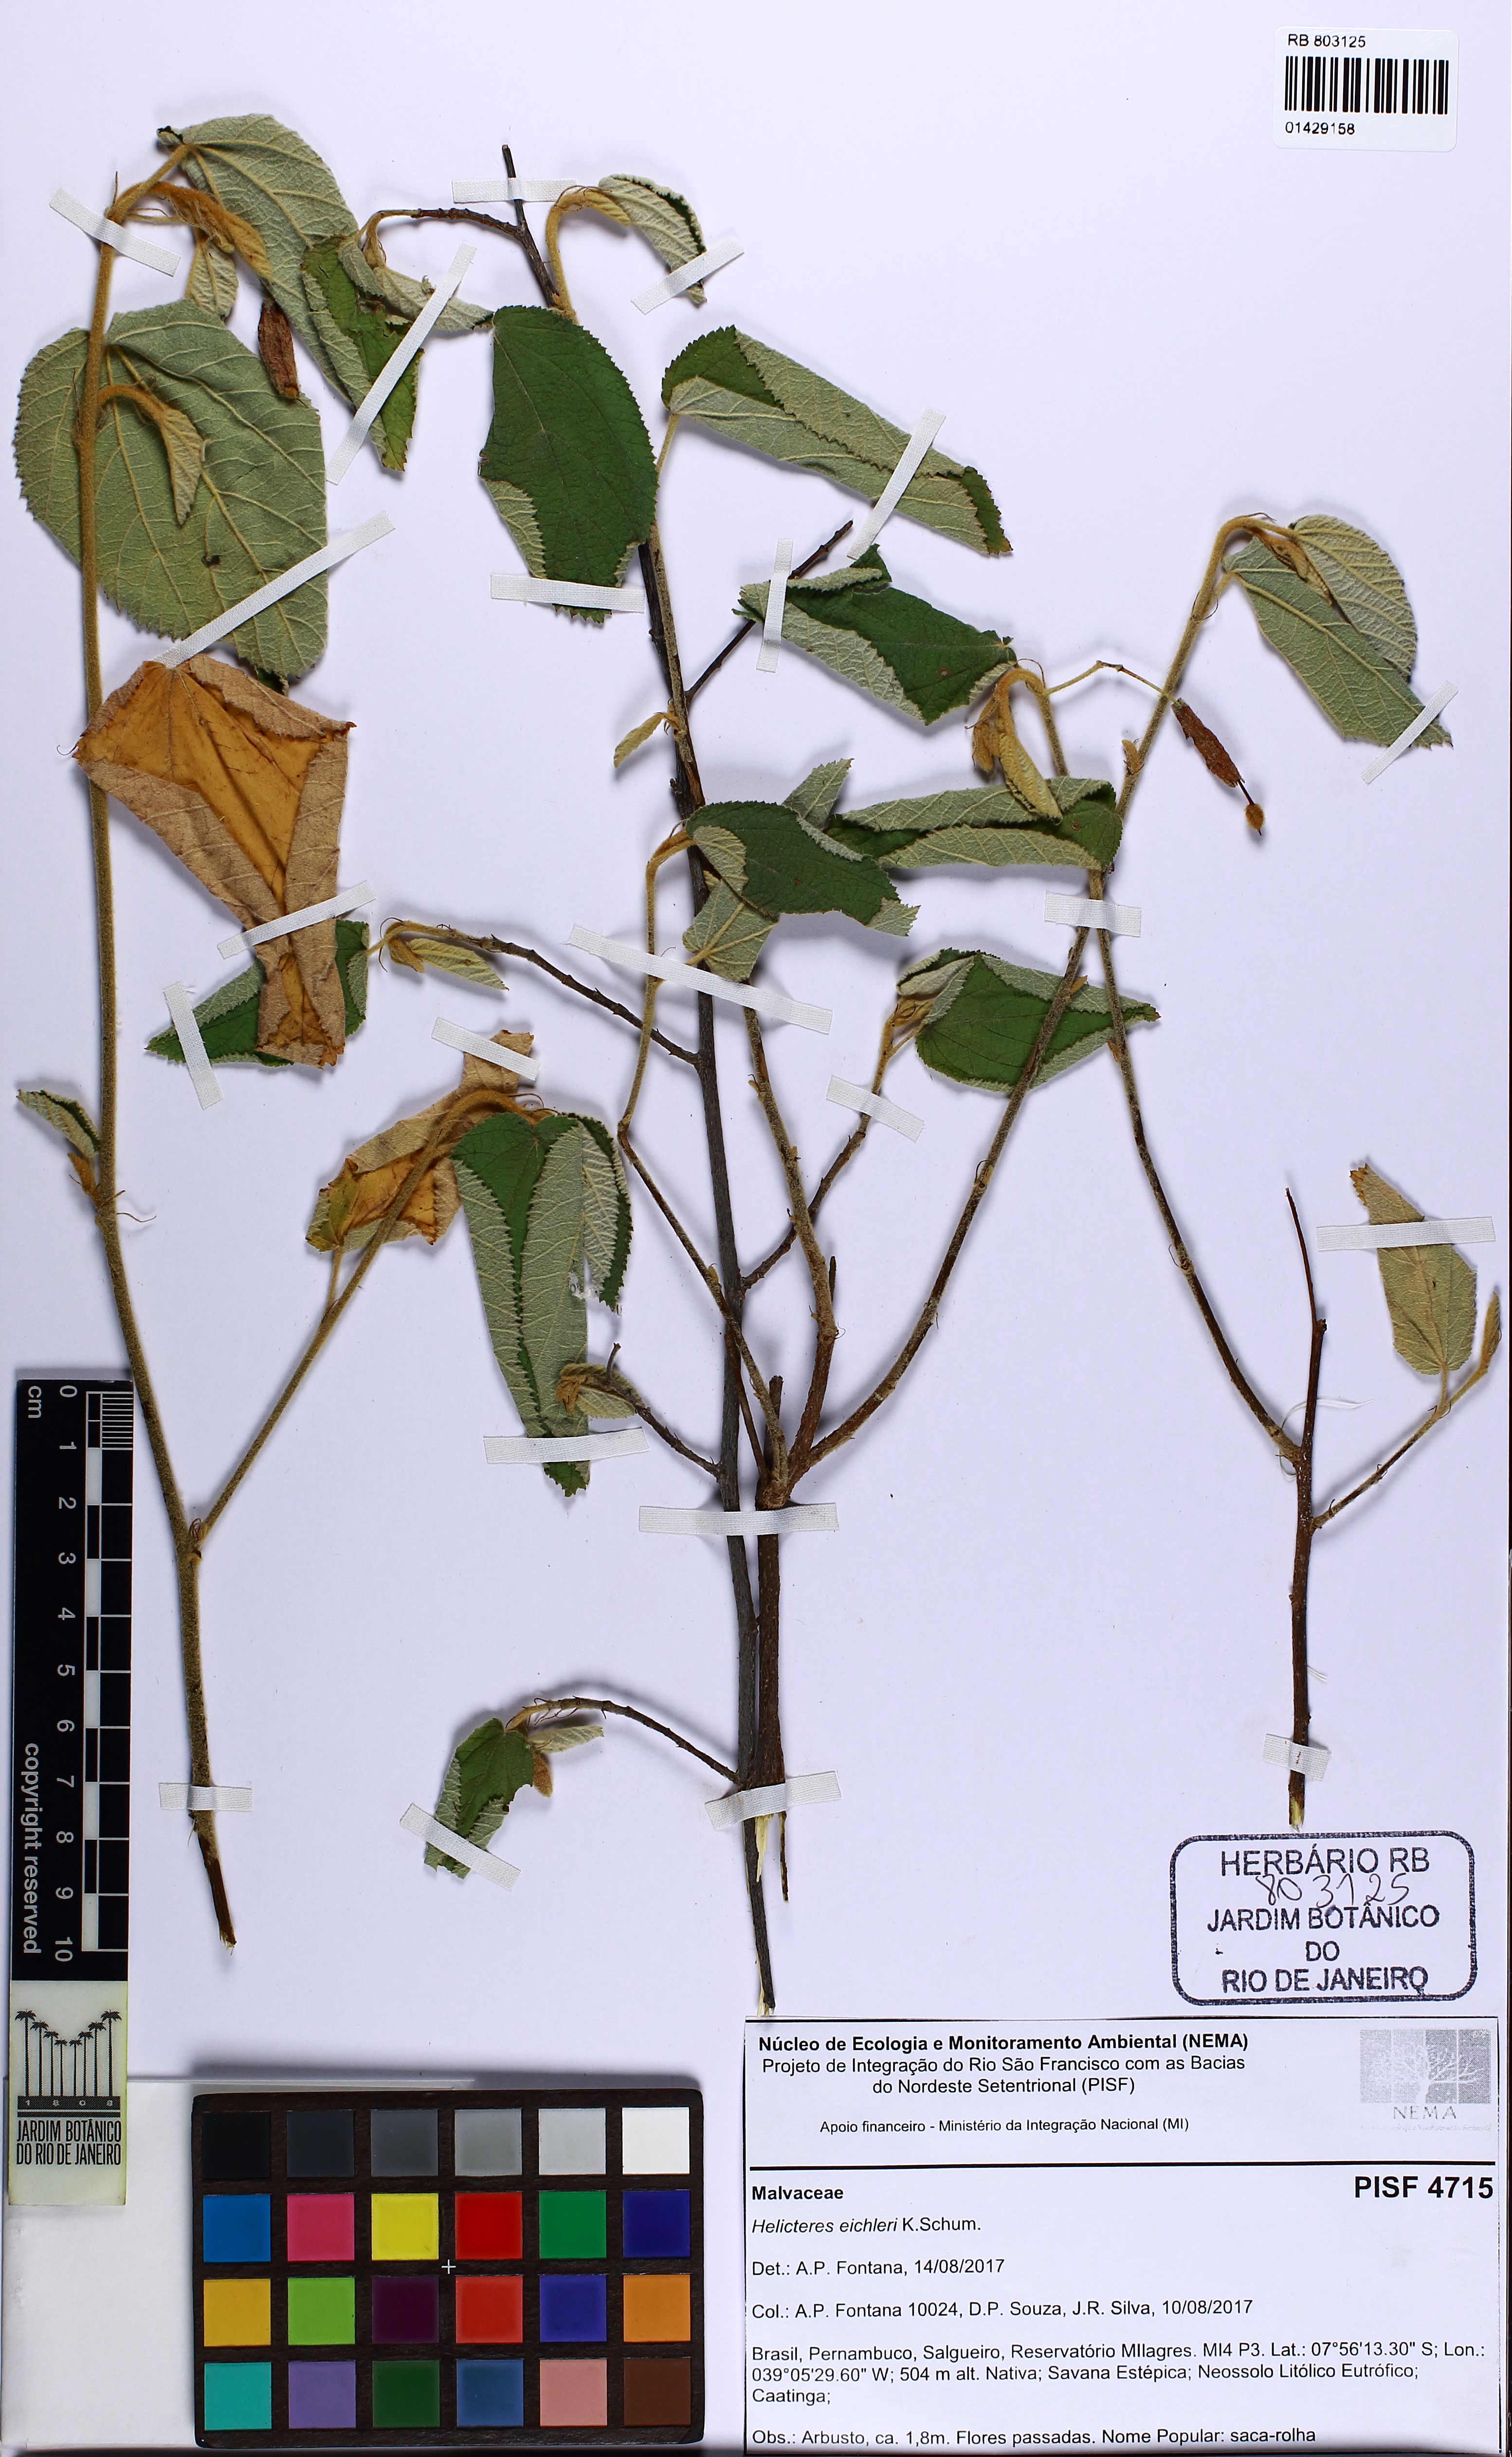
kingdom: Plantae
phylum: Tracheophyta
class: Magnoliopsida
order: Malvales
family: Malvaceae
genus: Helicteres
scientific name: Helicteres eichleri
